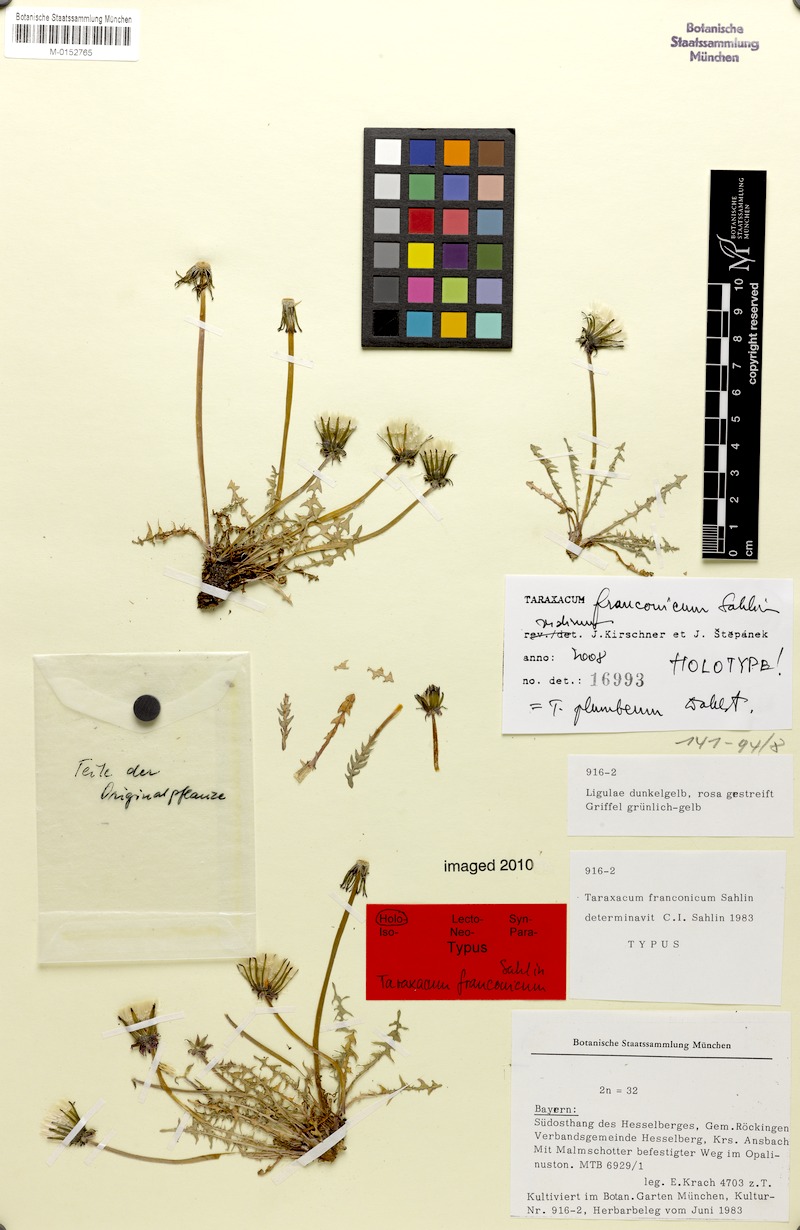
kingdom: Plantae
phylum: Tracheophyta
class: Magnoliopsida
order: Asterales
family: Asteraceae
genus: Taraxacum
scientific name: Taraxacum plumbeum
